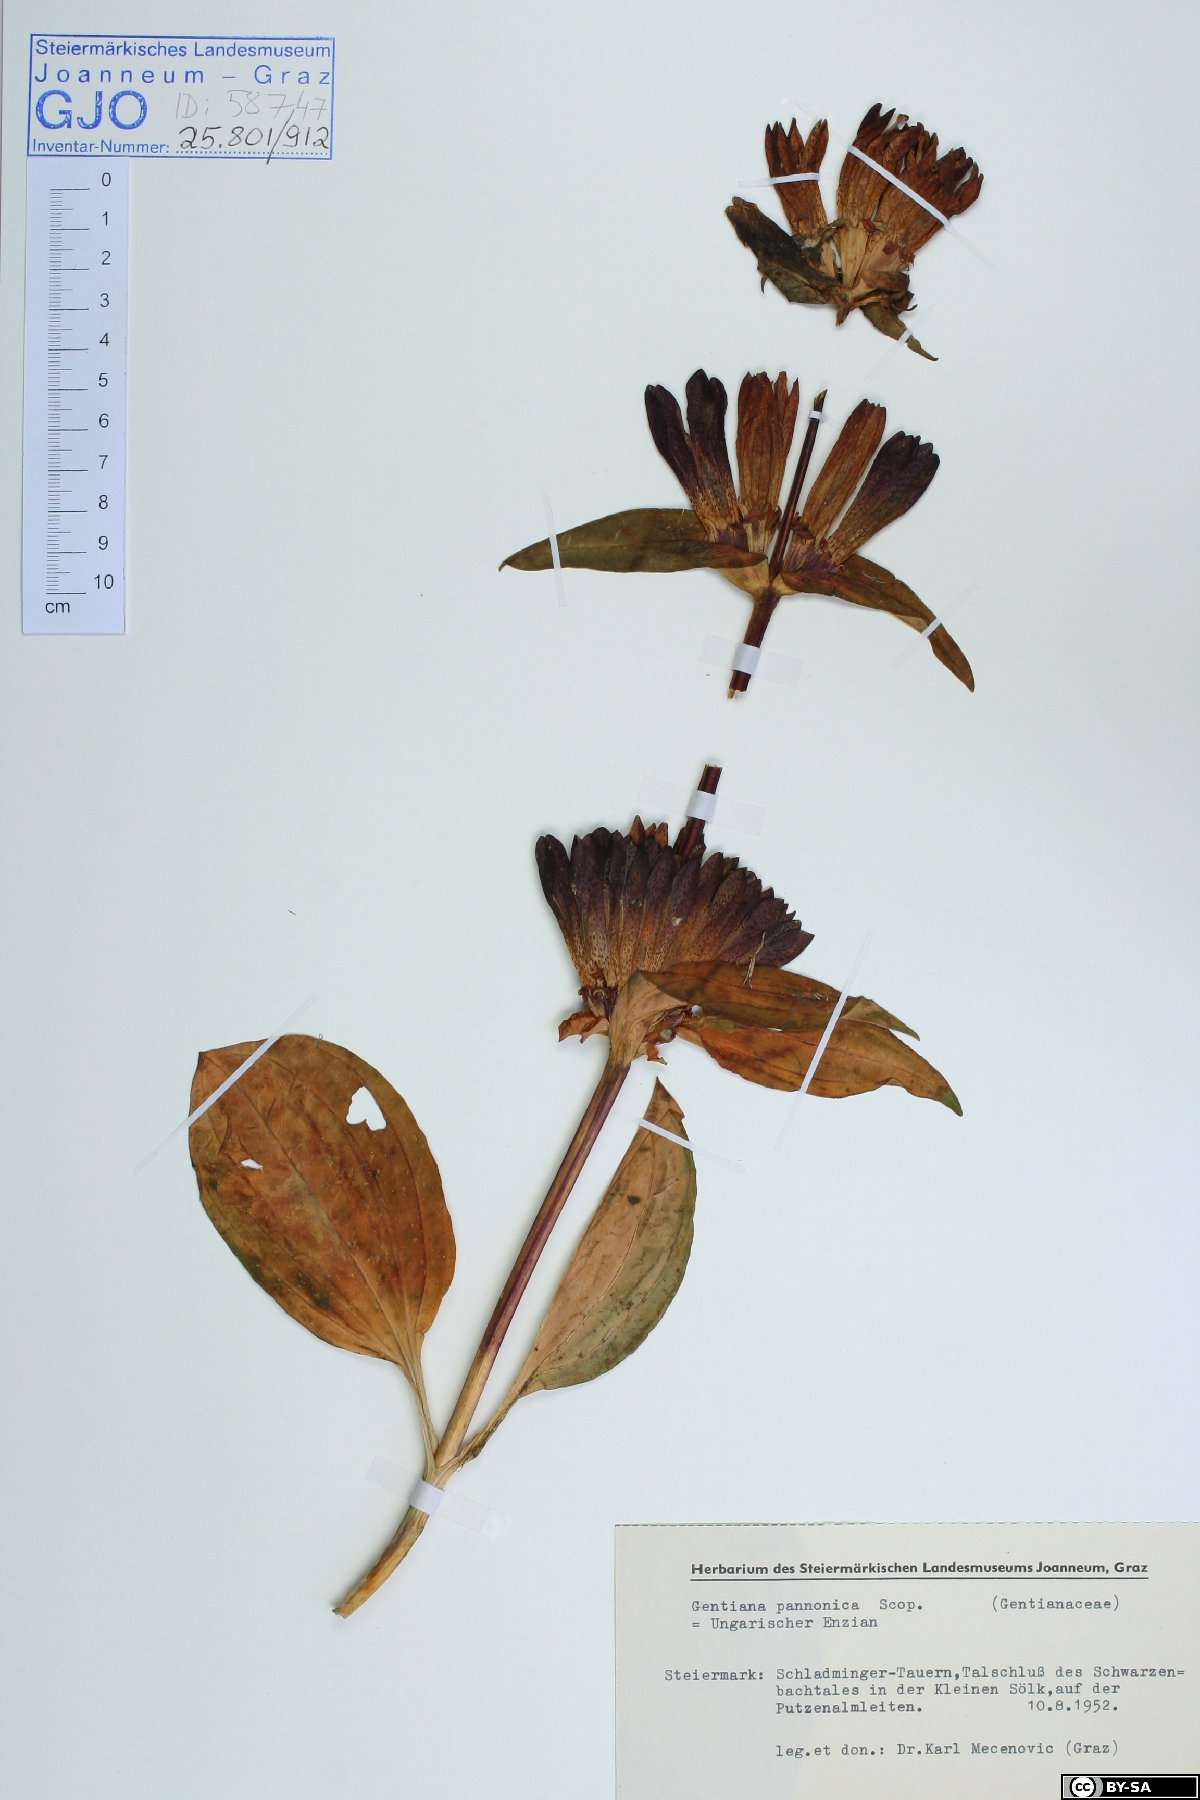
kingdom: Plantae
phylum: Tracheophyta
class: Magnoliopsida
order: Gentianales
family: Gentianaceae
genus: Gentiana
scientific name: Gentiana pannonica
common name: Hungarian gentian
